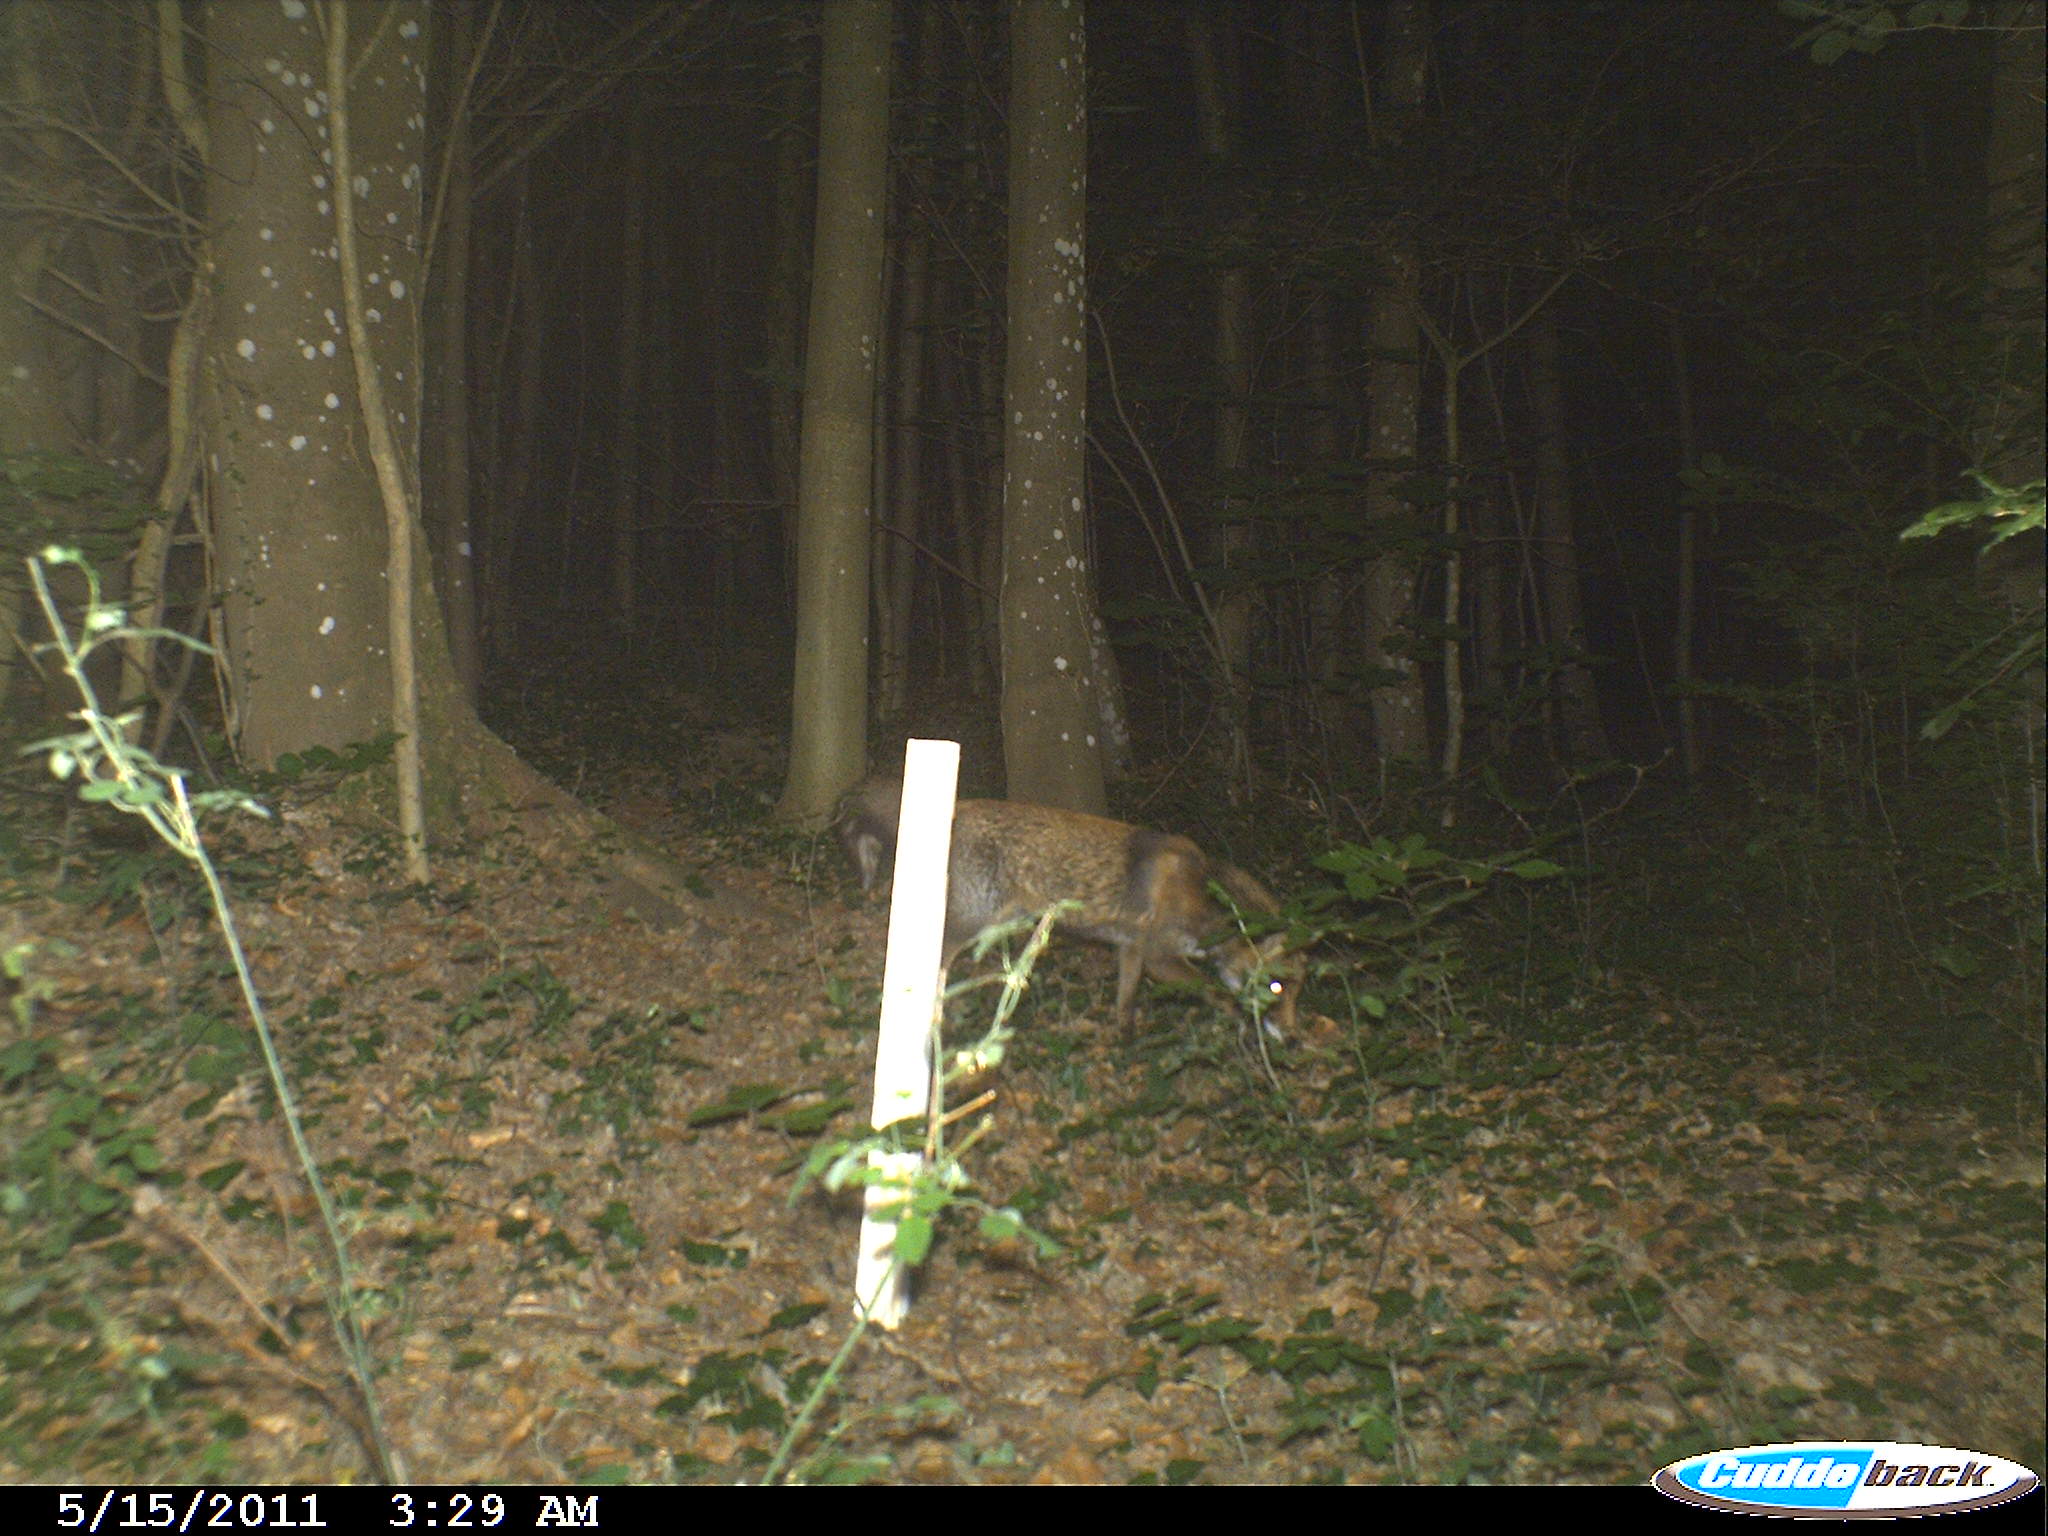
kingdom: Animalia
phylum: Chordata
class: Mammalia
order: Carnivora
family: Canidae
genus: Vulpes
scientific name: Vulpes vulpes
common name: Red fox
